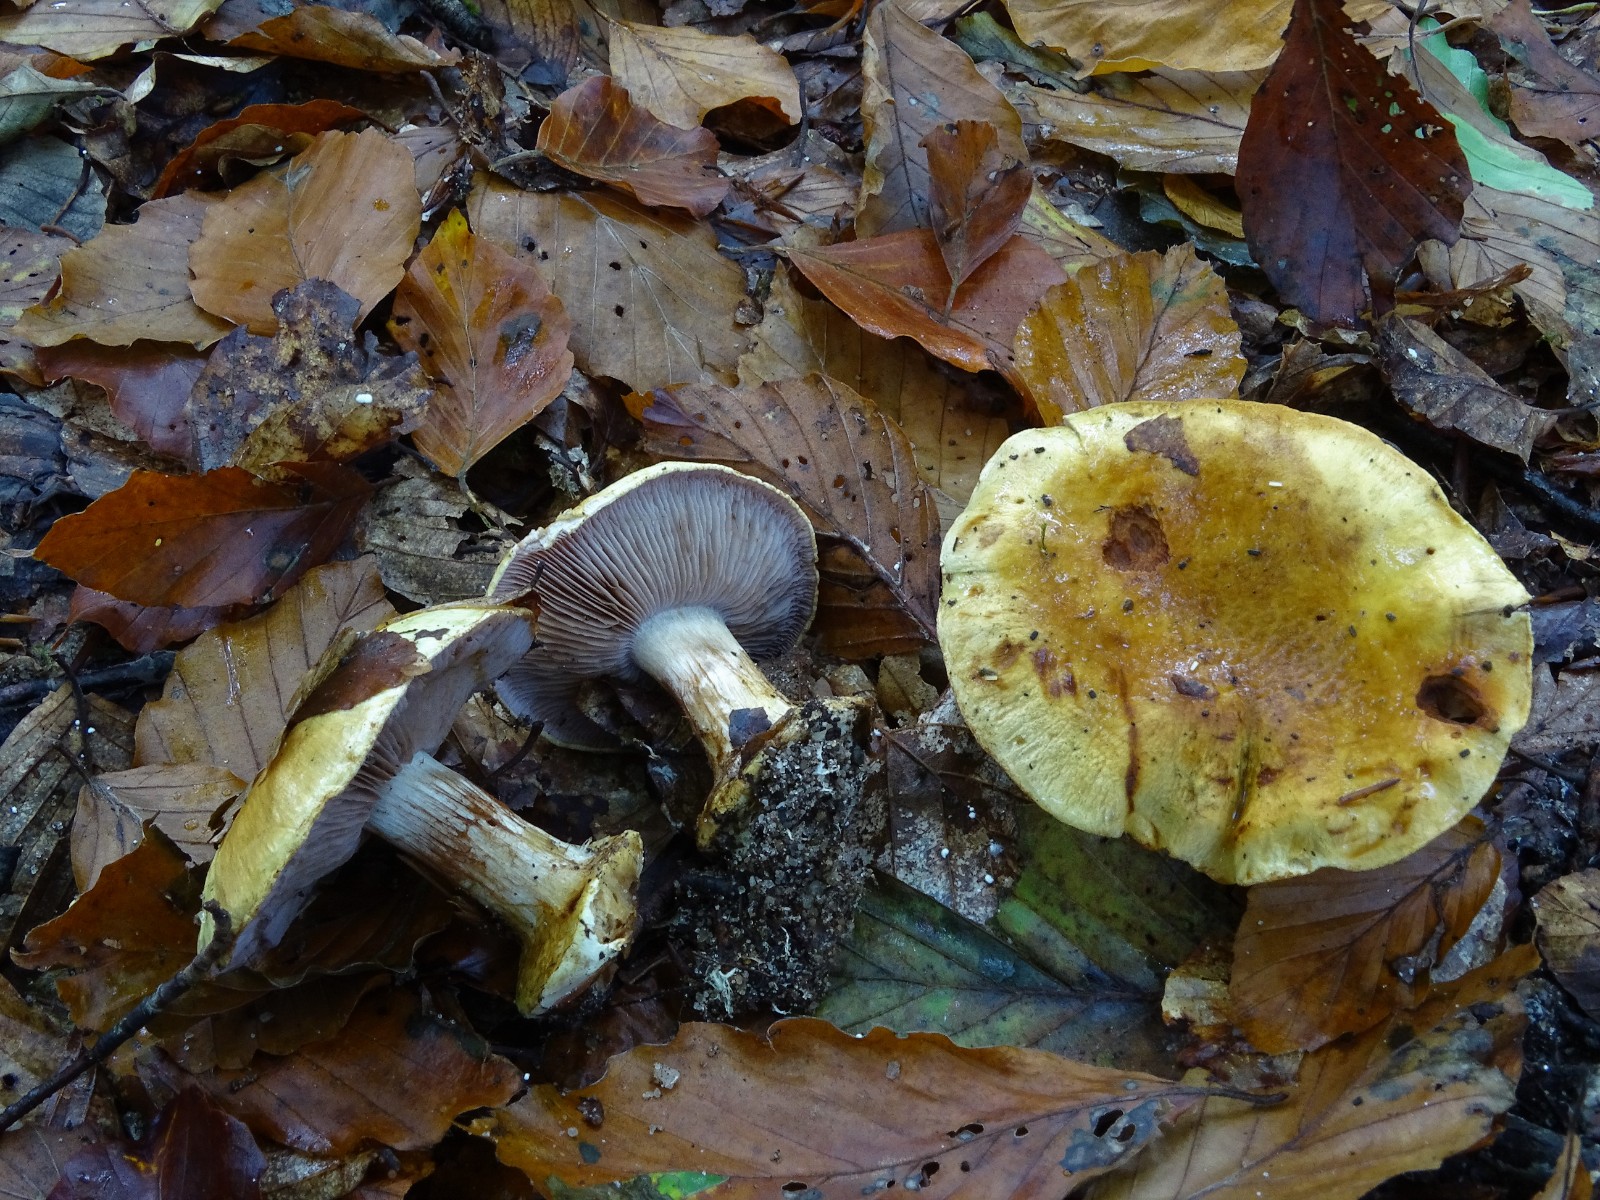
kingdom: Fungi
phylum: Basidiomycota
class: Agaricomycetes
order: Agaricales
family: Cortinariaceae
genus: Calonarius
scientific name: Calonarius callochrous
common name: lillabladet slørhat
